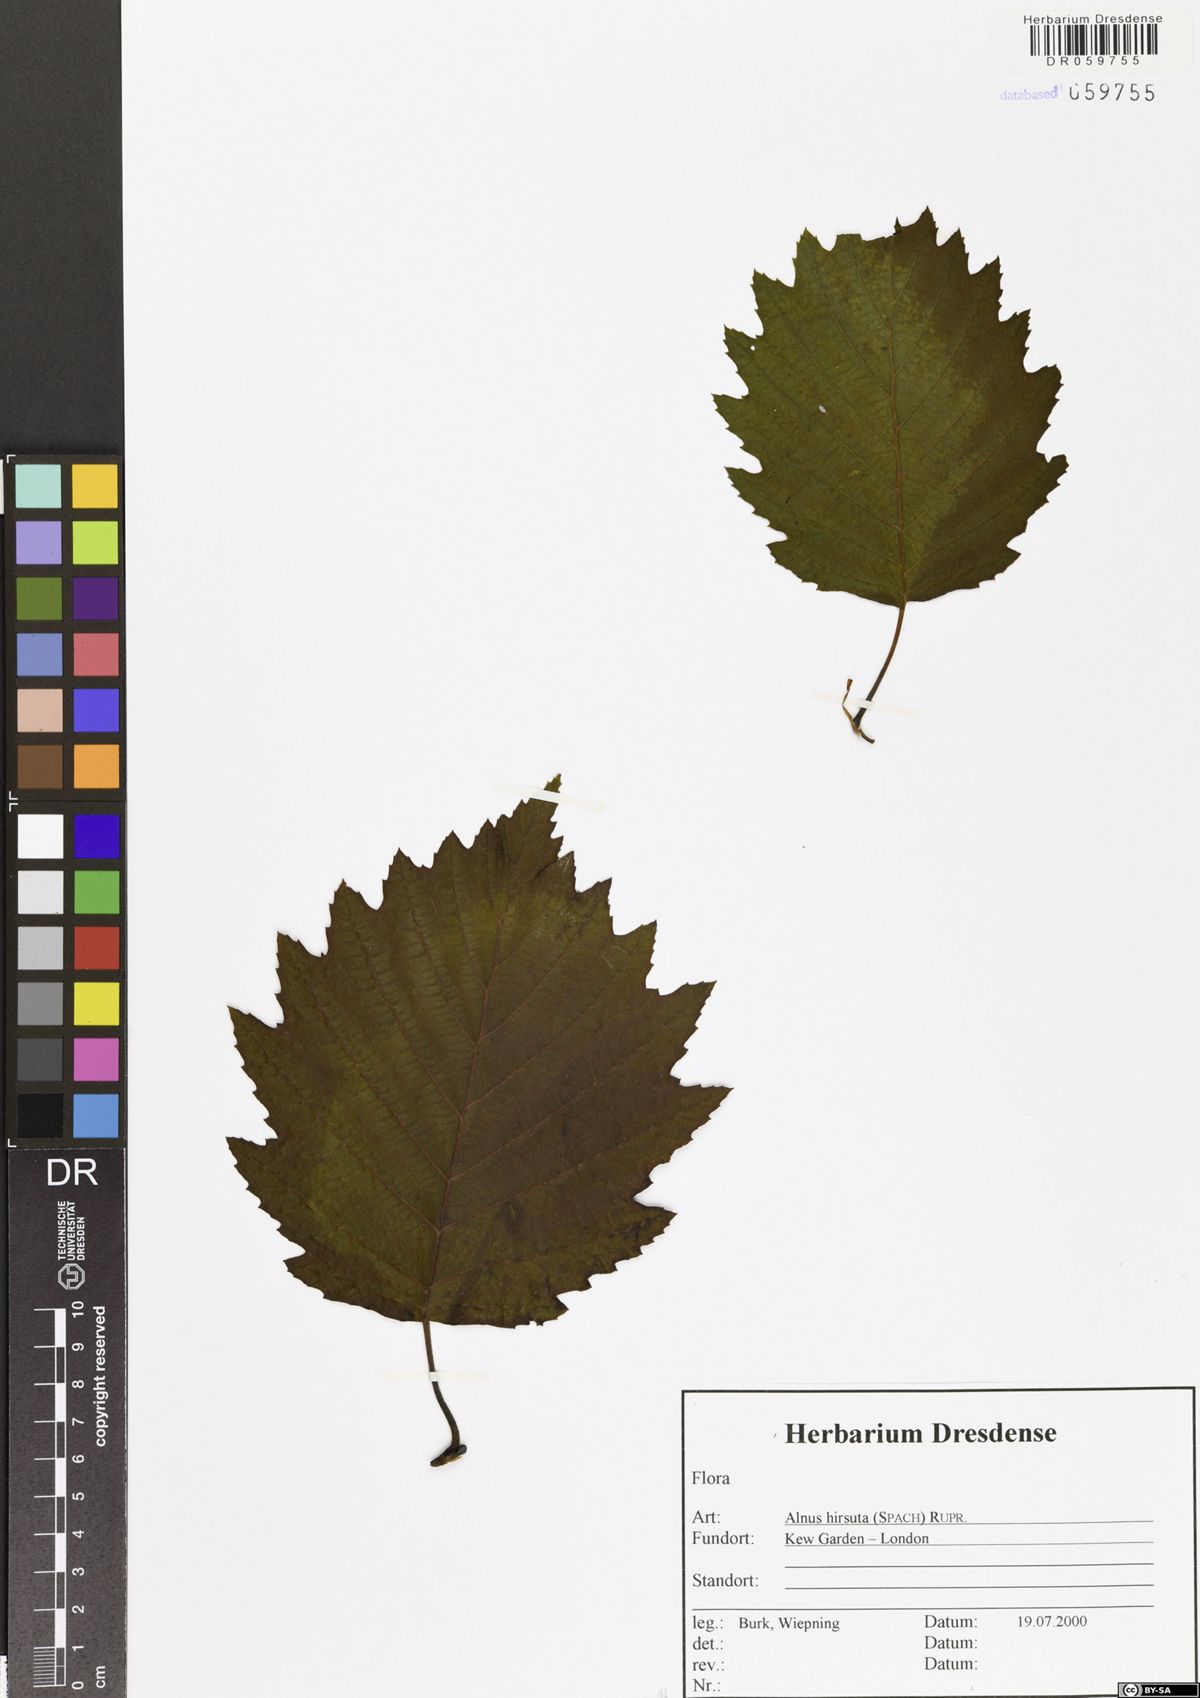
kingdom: Plantae
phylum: Tracheophyta
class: Magnoliopsida
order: Fagales
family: Betulaceae
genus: Alnus
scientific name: Alnus hirsuta
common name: Manchurian alder
